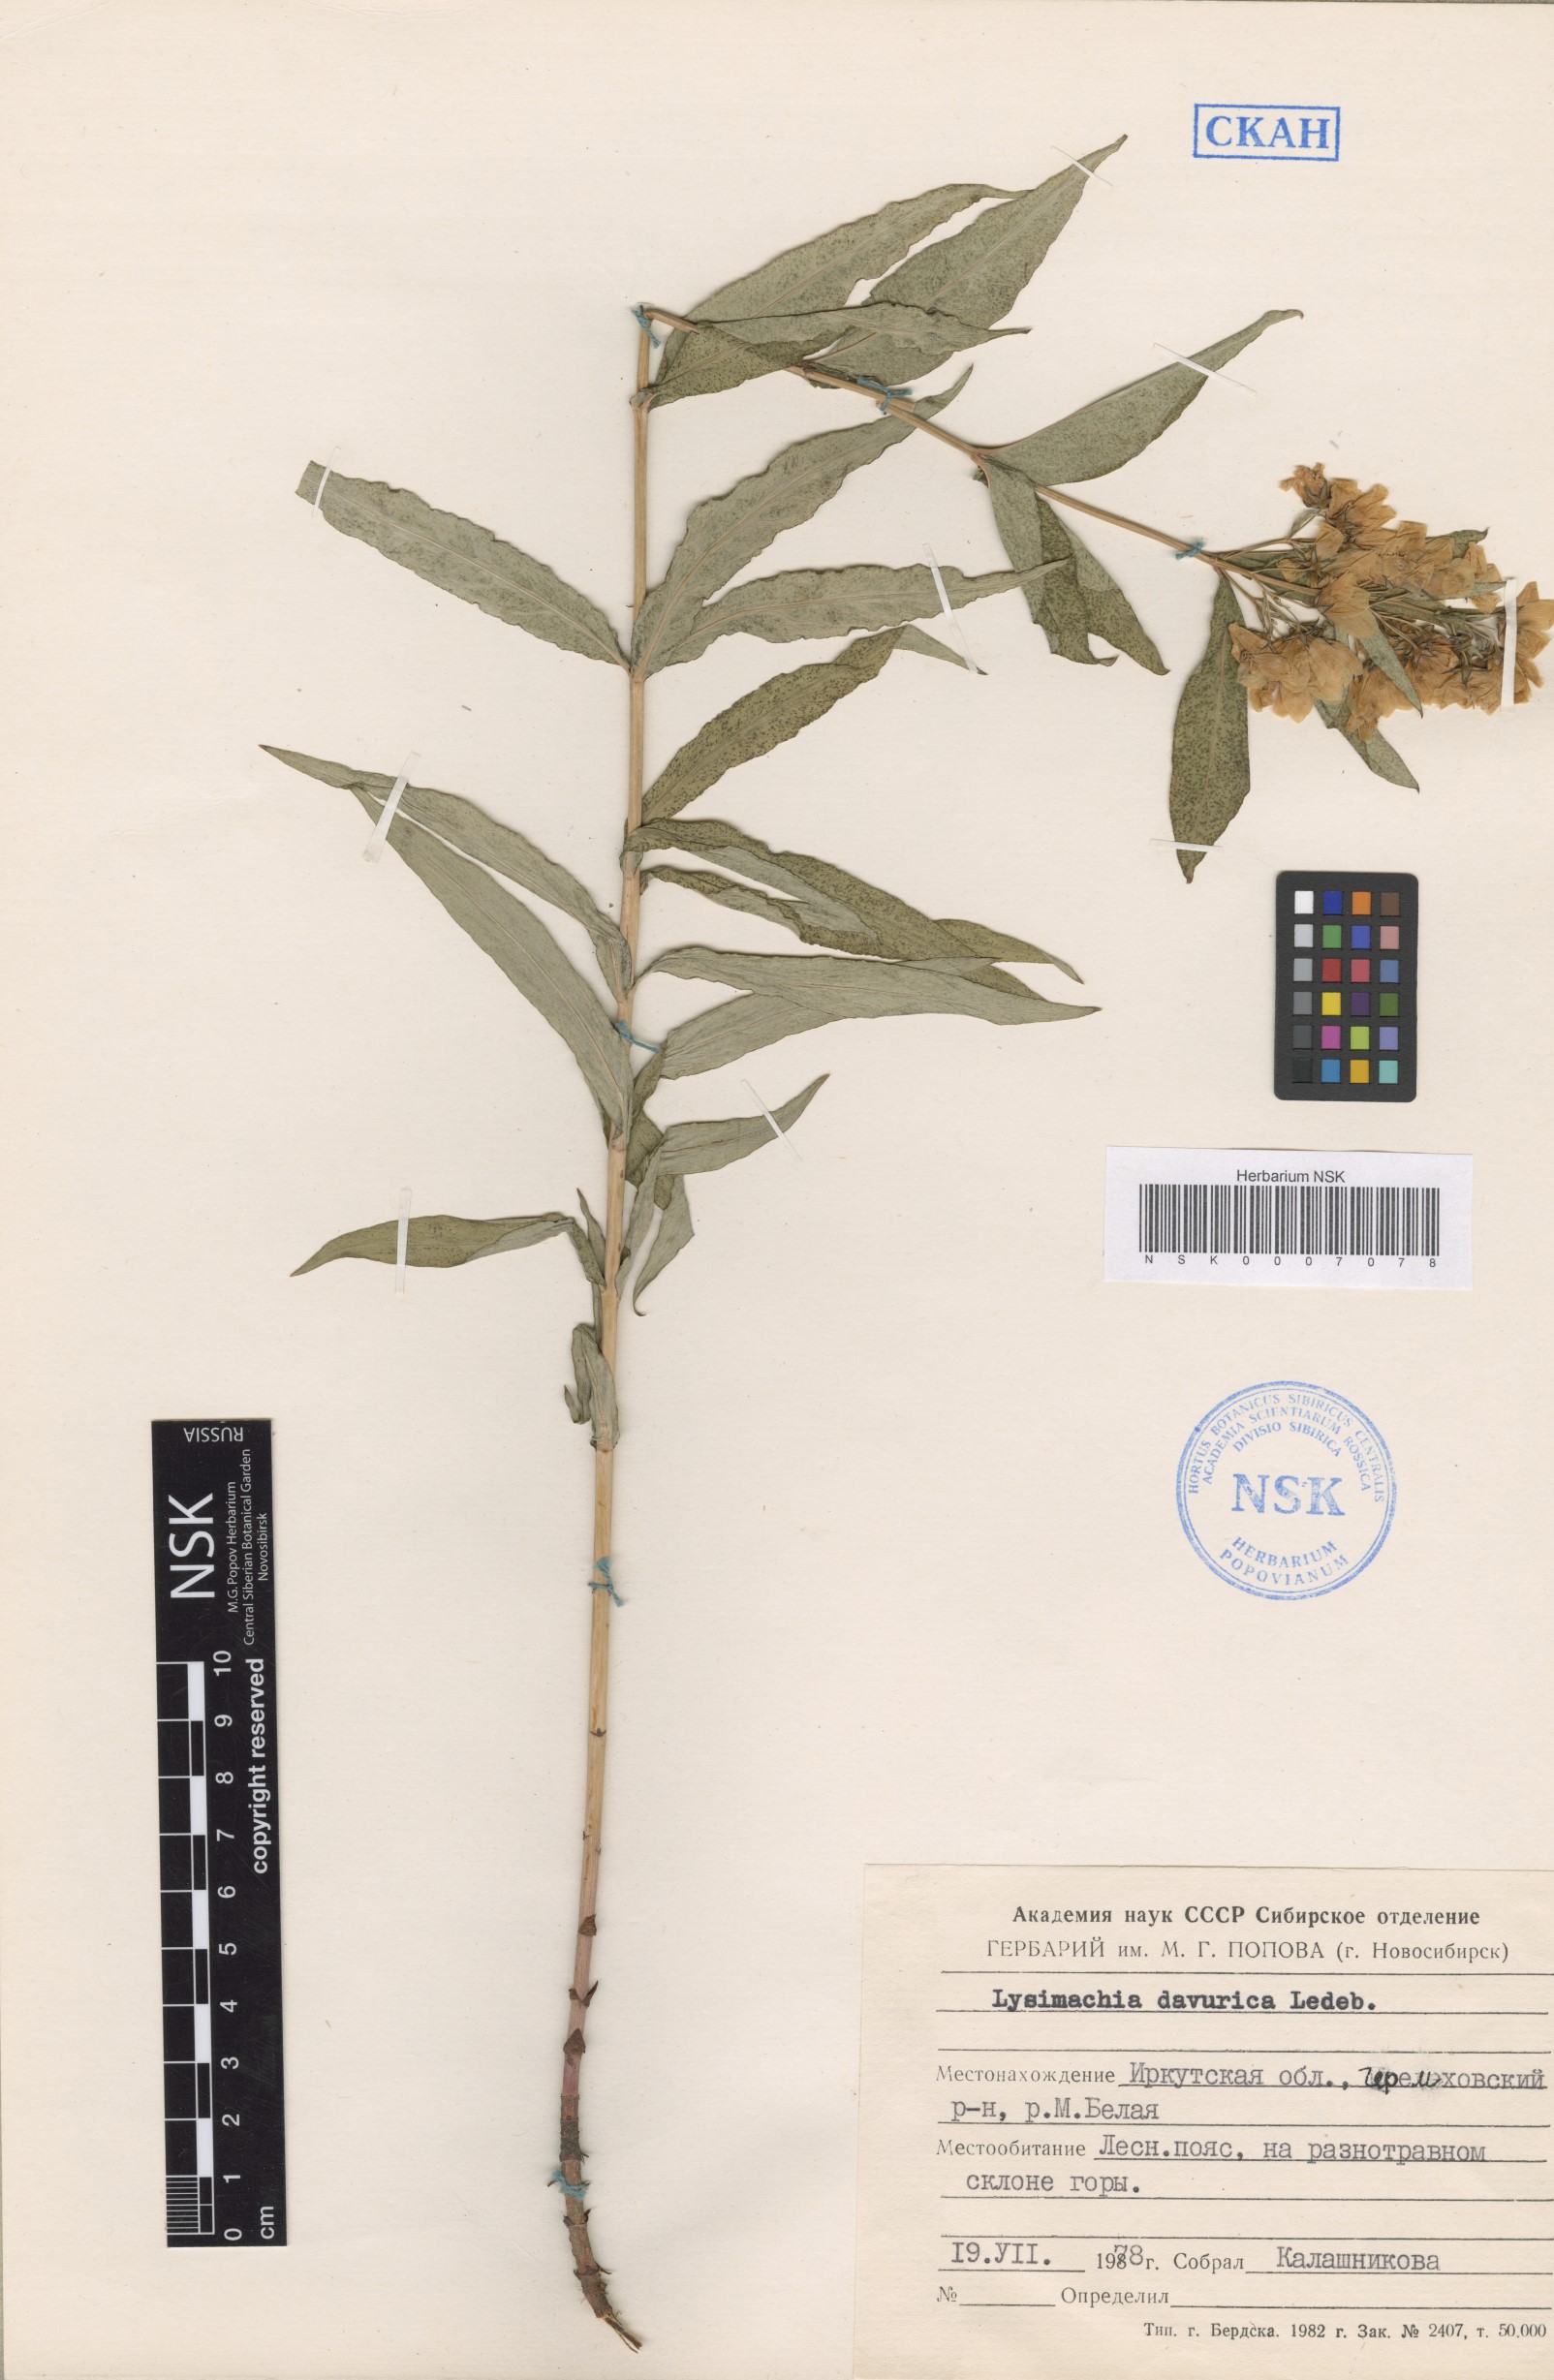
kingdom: Plantae
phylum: Tracheophyta
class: Magnoliopsida
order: Ericales
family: Primulaceae
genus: Lysimachia
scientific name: Lysimachia davurica
